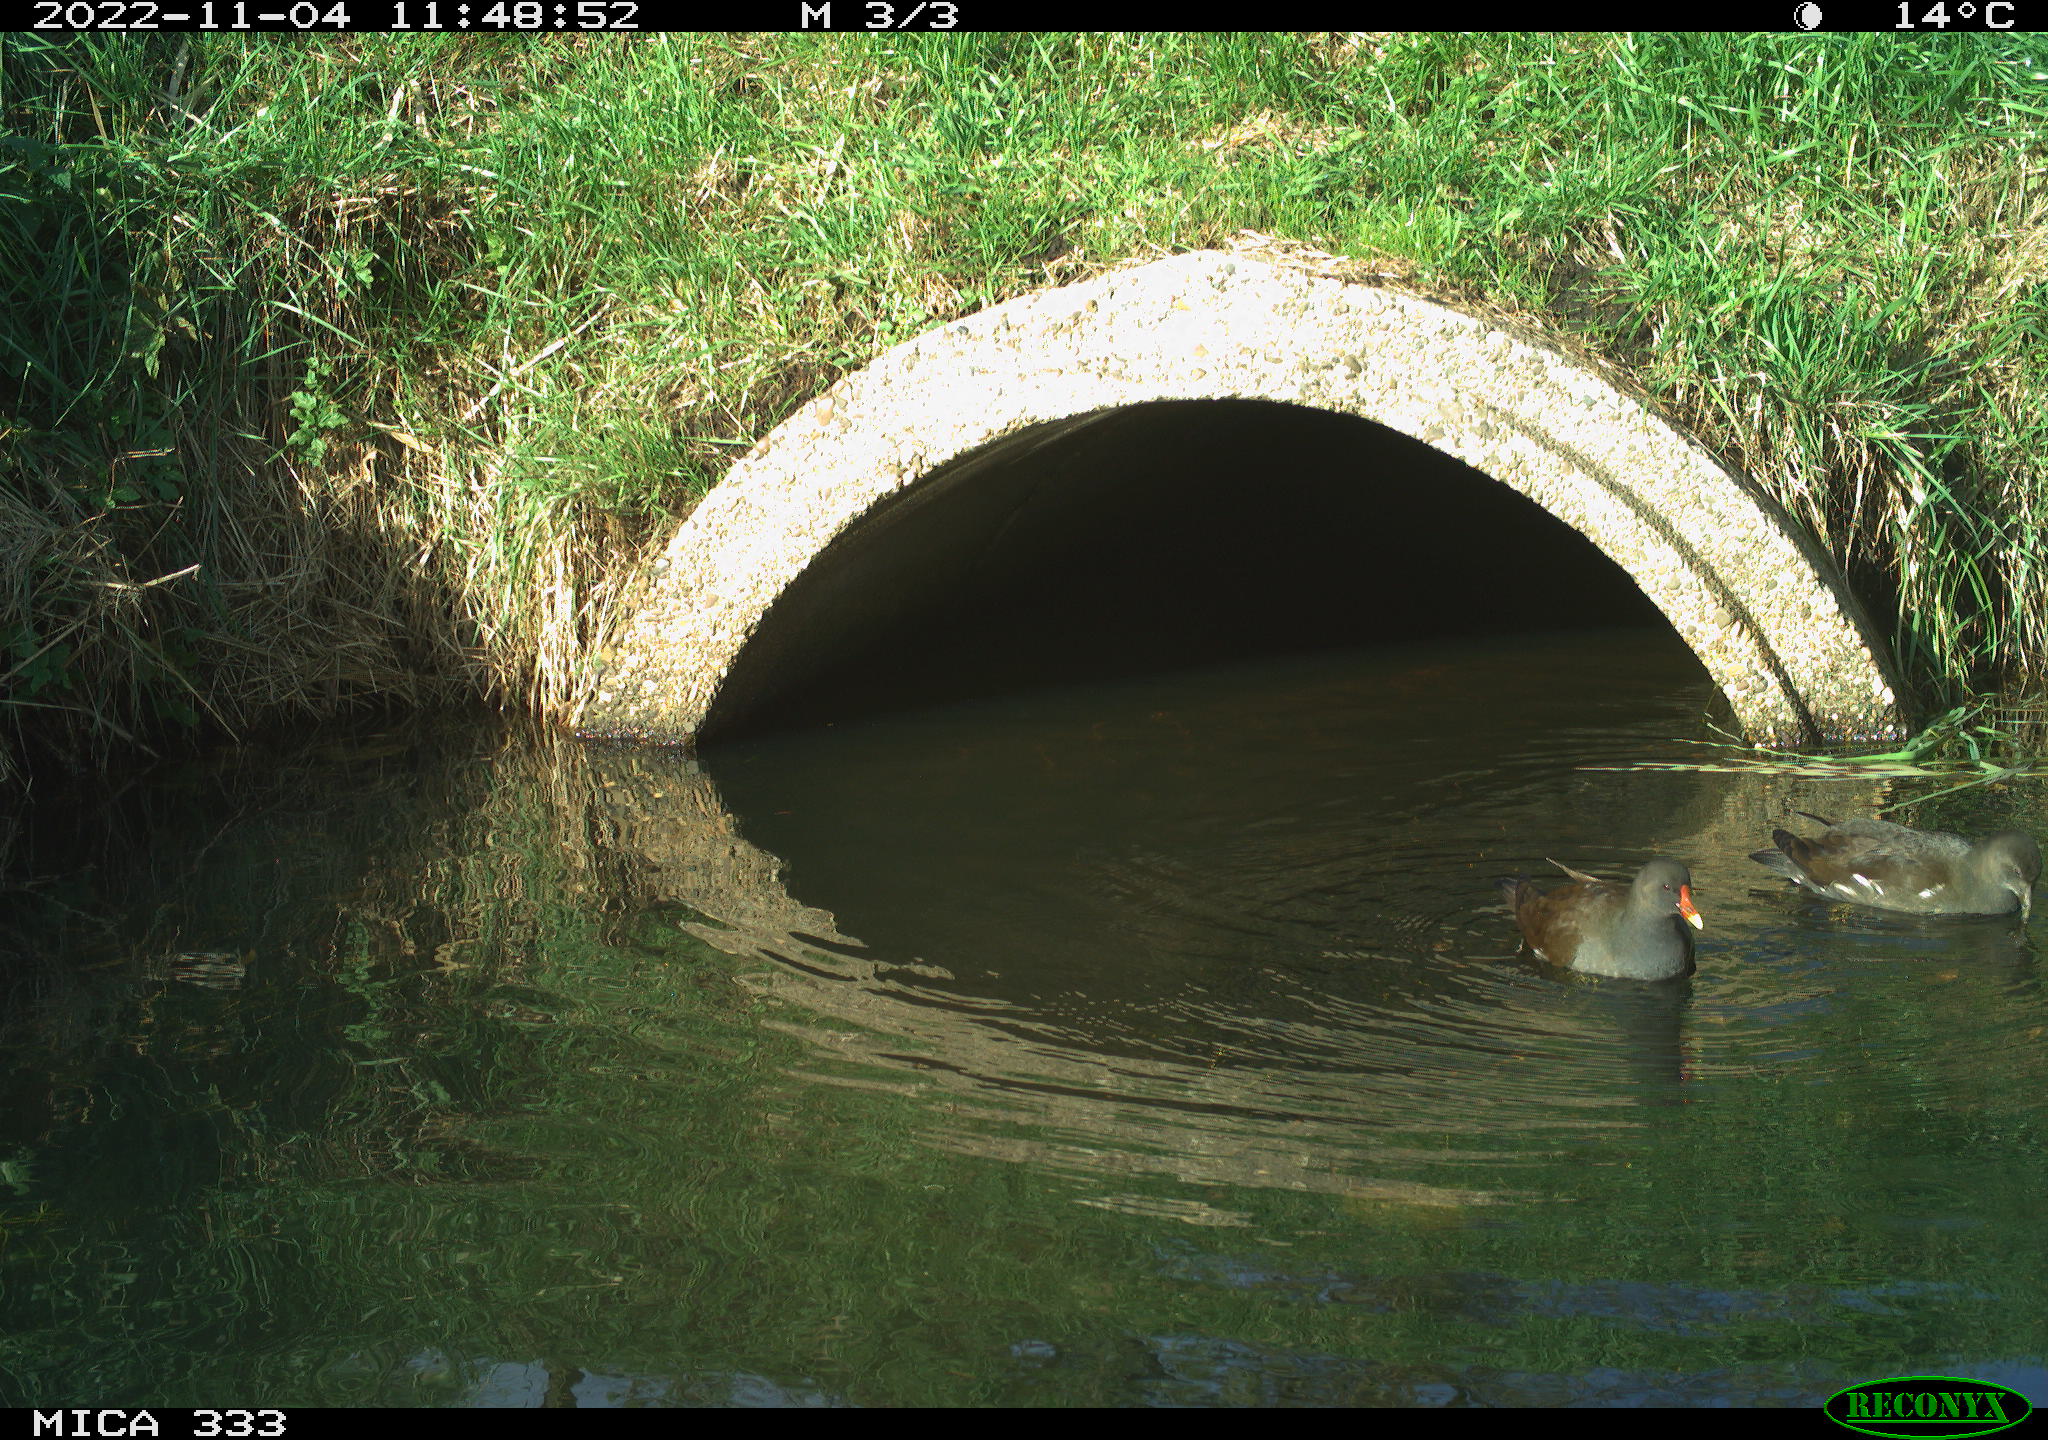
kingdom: Animalia
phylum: Chordata
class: Aves
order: Gruiformes
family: Rallidae
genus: Gallinula
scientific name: Gallinula chloropus
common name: Common moorhen
